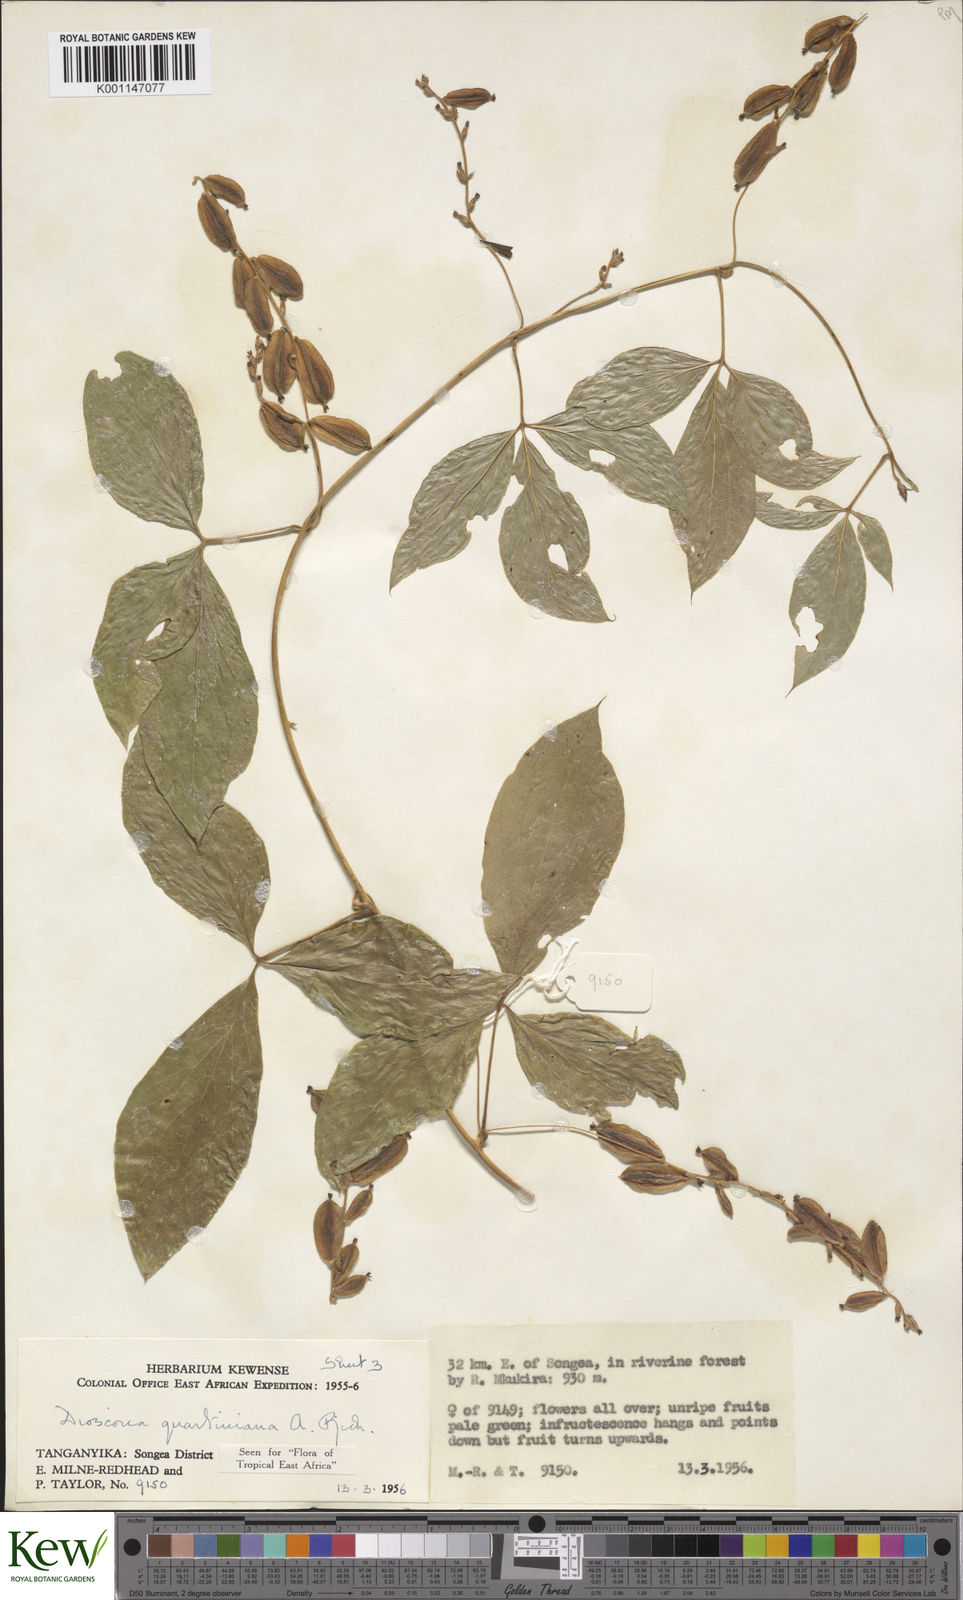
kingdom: Plantae
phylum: Tracheophyta
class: Liliopsida
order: Dioscoreales
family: Dioscoreaceae
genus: Dioscorea
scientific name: Dioscorea quartiniana
